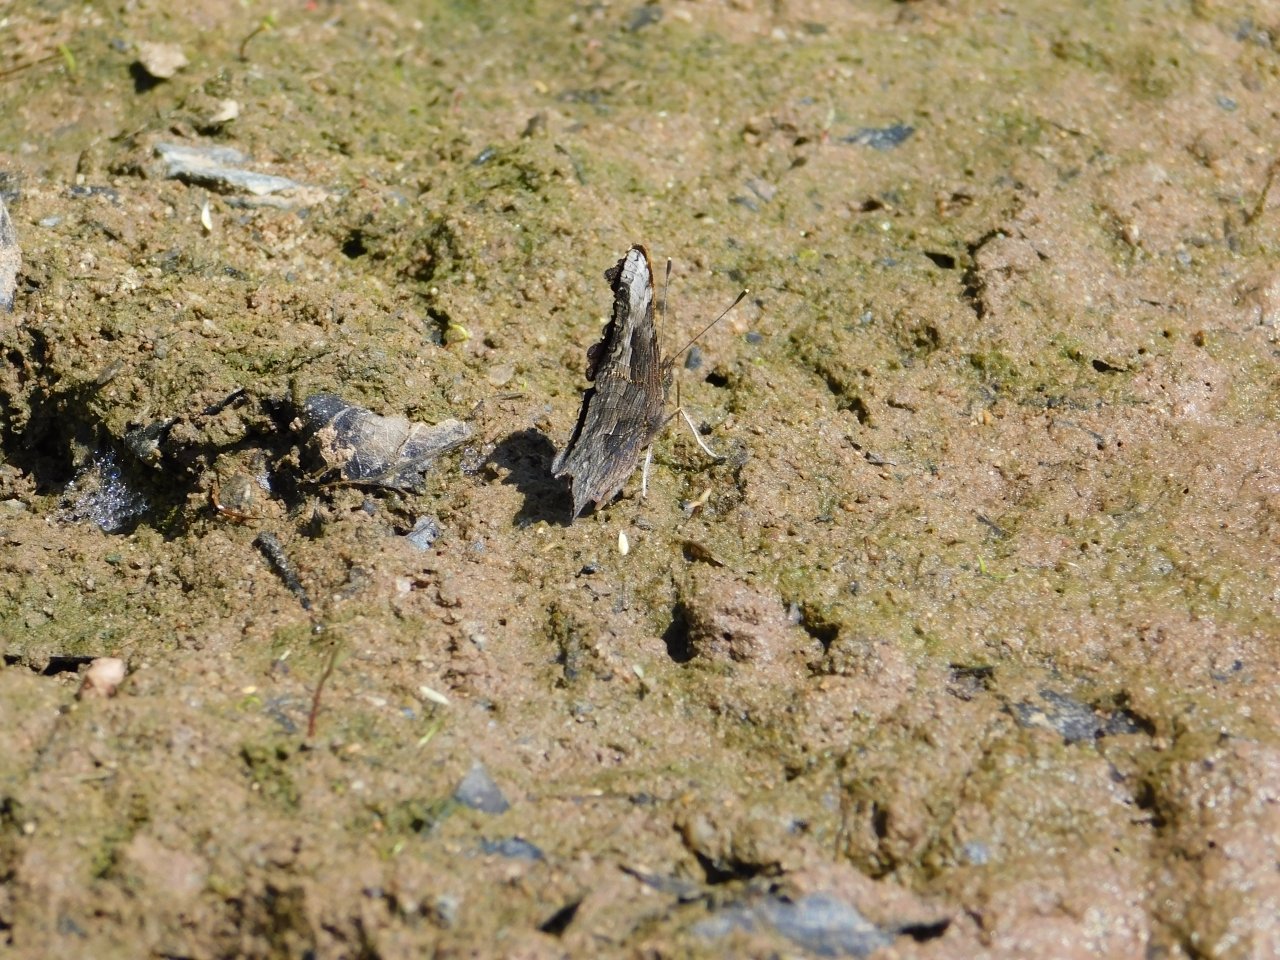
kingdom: Animalia
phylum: Arthropoda
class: Insecta
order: Lepidoptera
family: Nymphalidae
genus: Polygonia
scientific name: Polygonia progne
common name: Gray Comma
